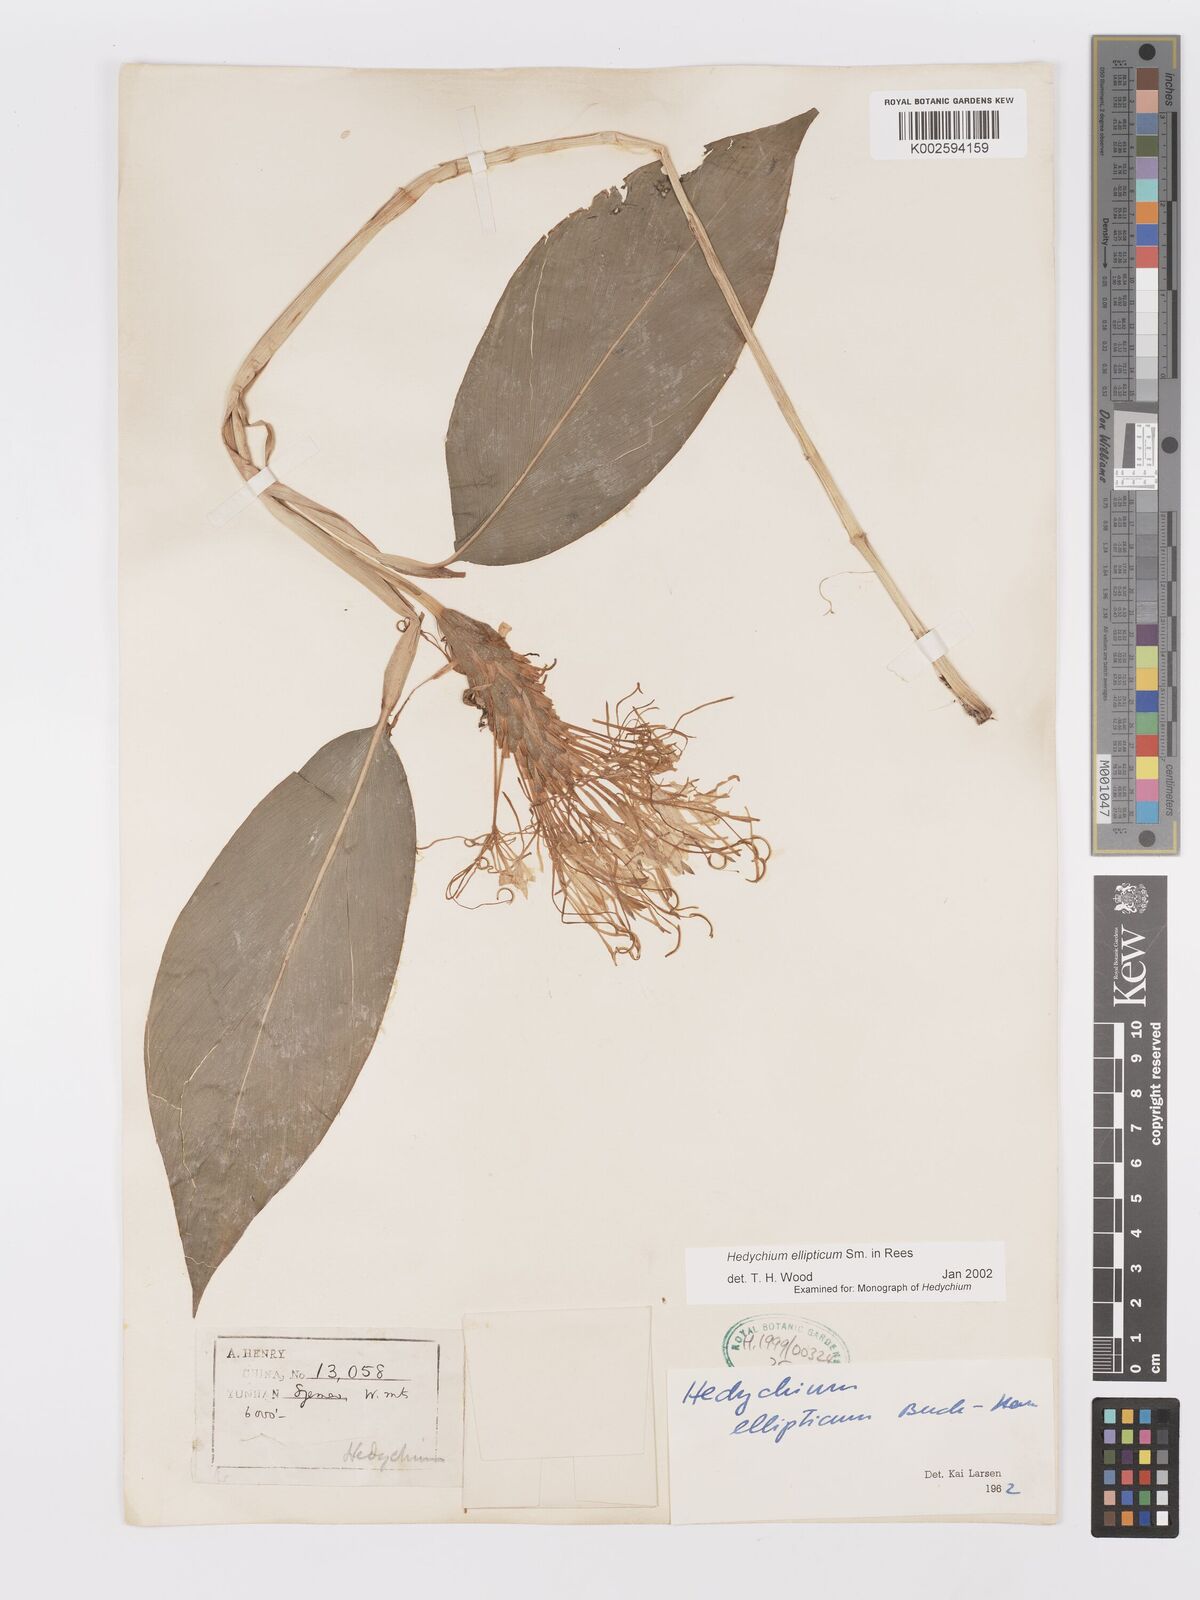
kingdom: Plantae
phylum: Tracheophyta
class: Liliopsida
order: Zingiberales
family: Zingiberaceae
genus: Hedychium
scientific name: Hedychium ellipticum
